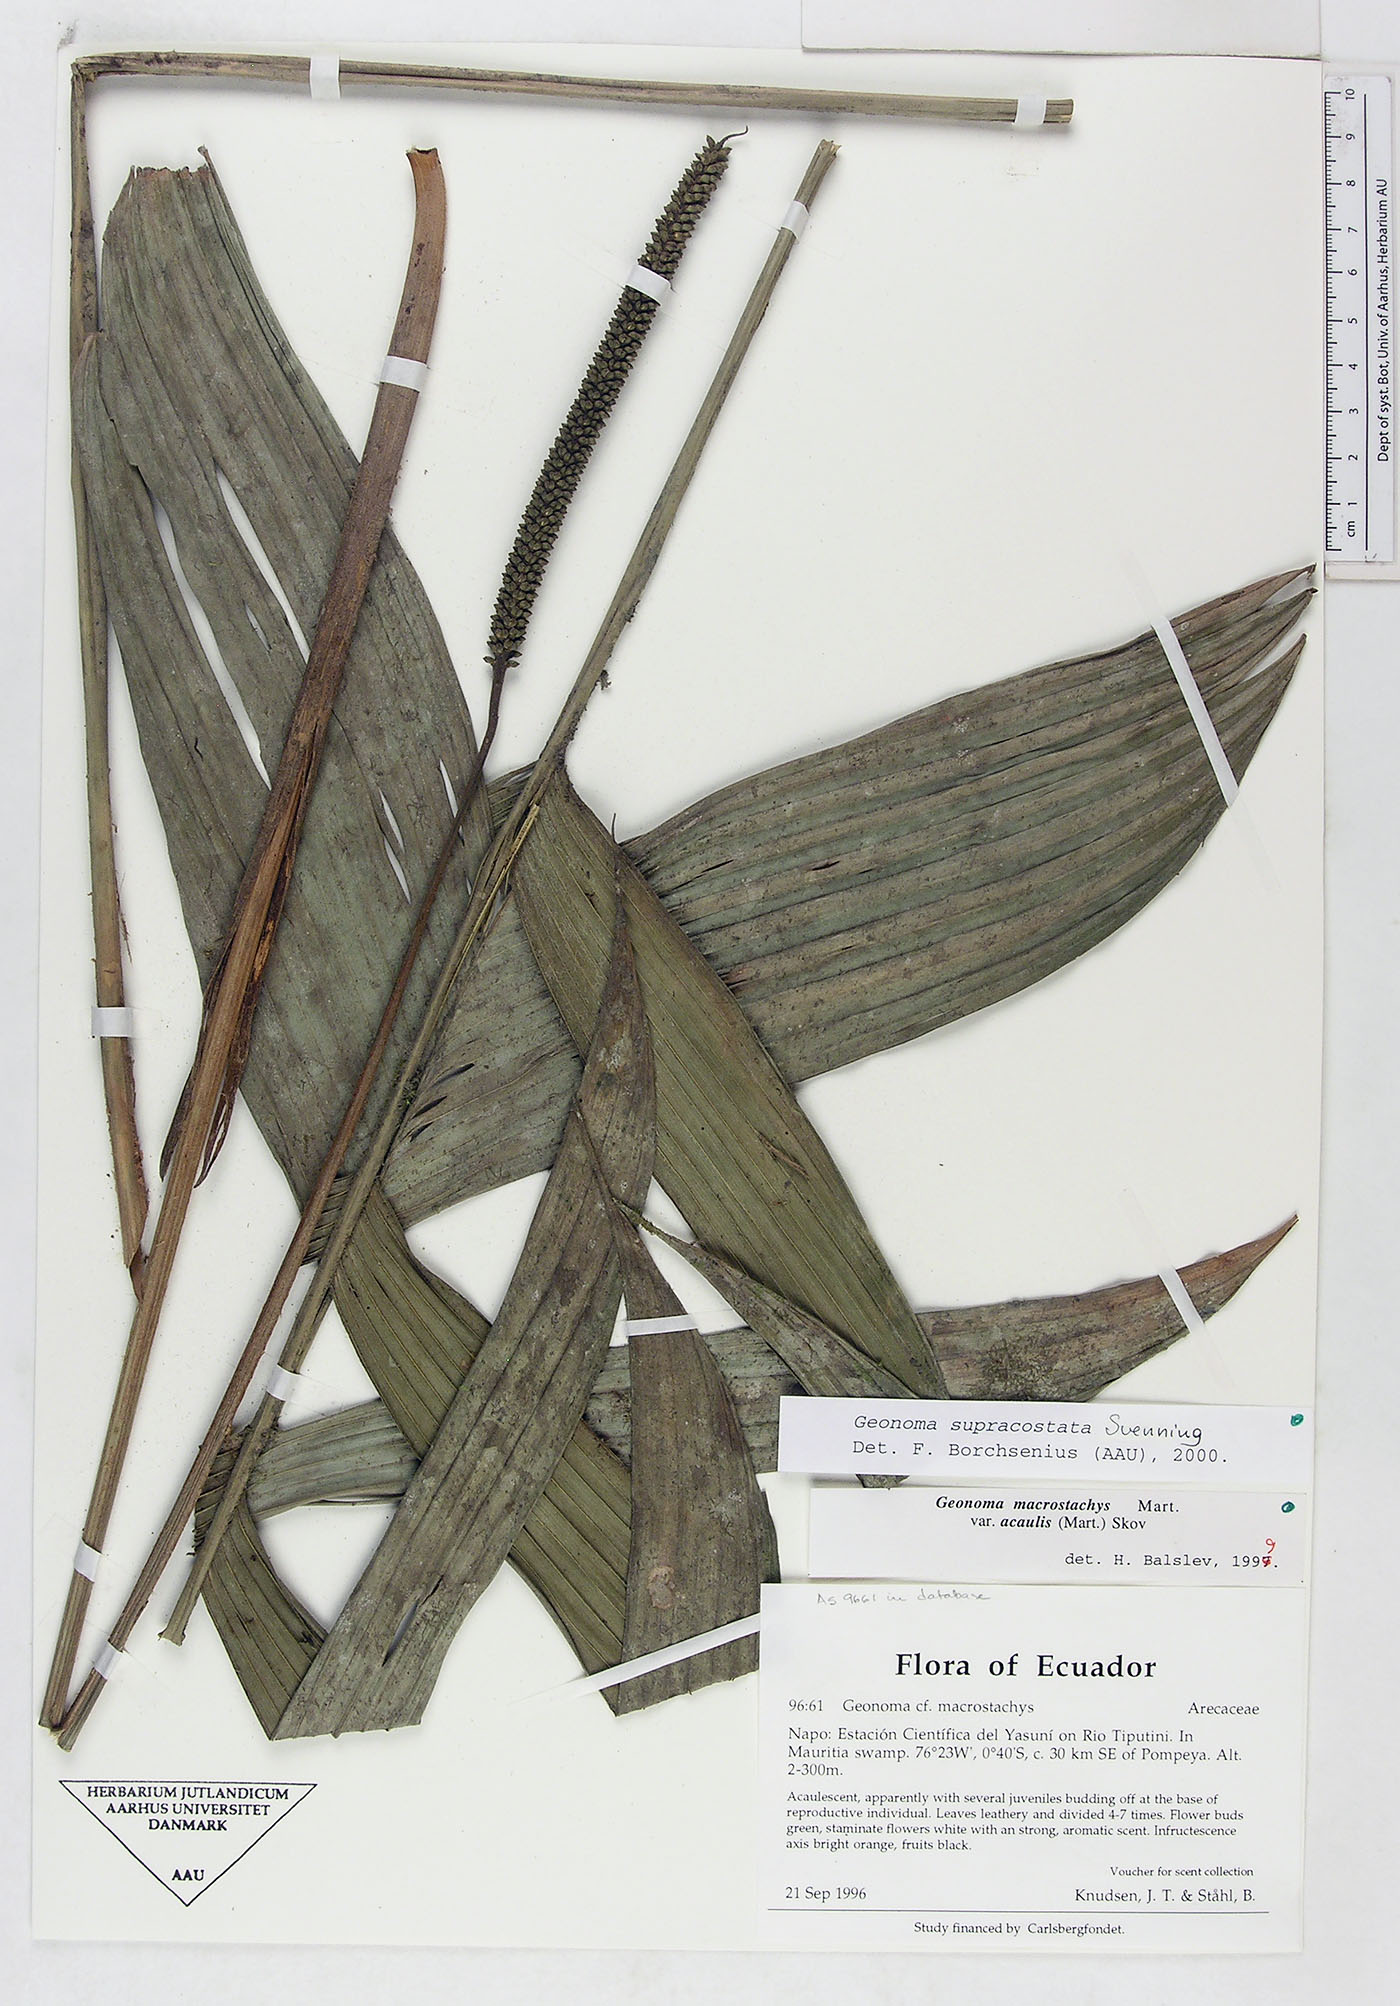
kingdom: Plantae
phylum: Tracheophyta
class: Liliopsida
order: Arecales
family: Arecaceae
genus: Geonoma
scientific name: Geonoma macrostachys
